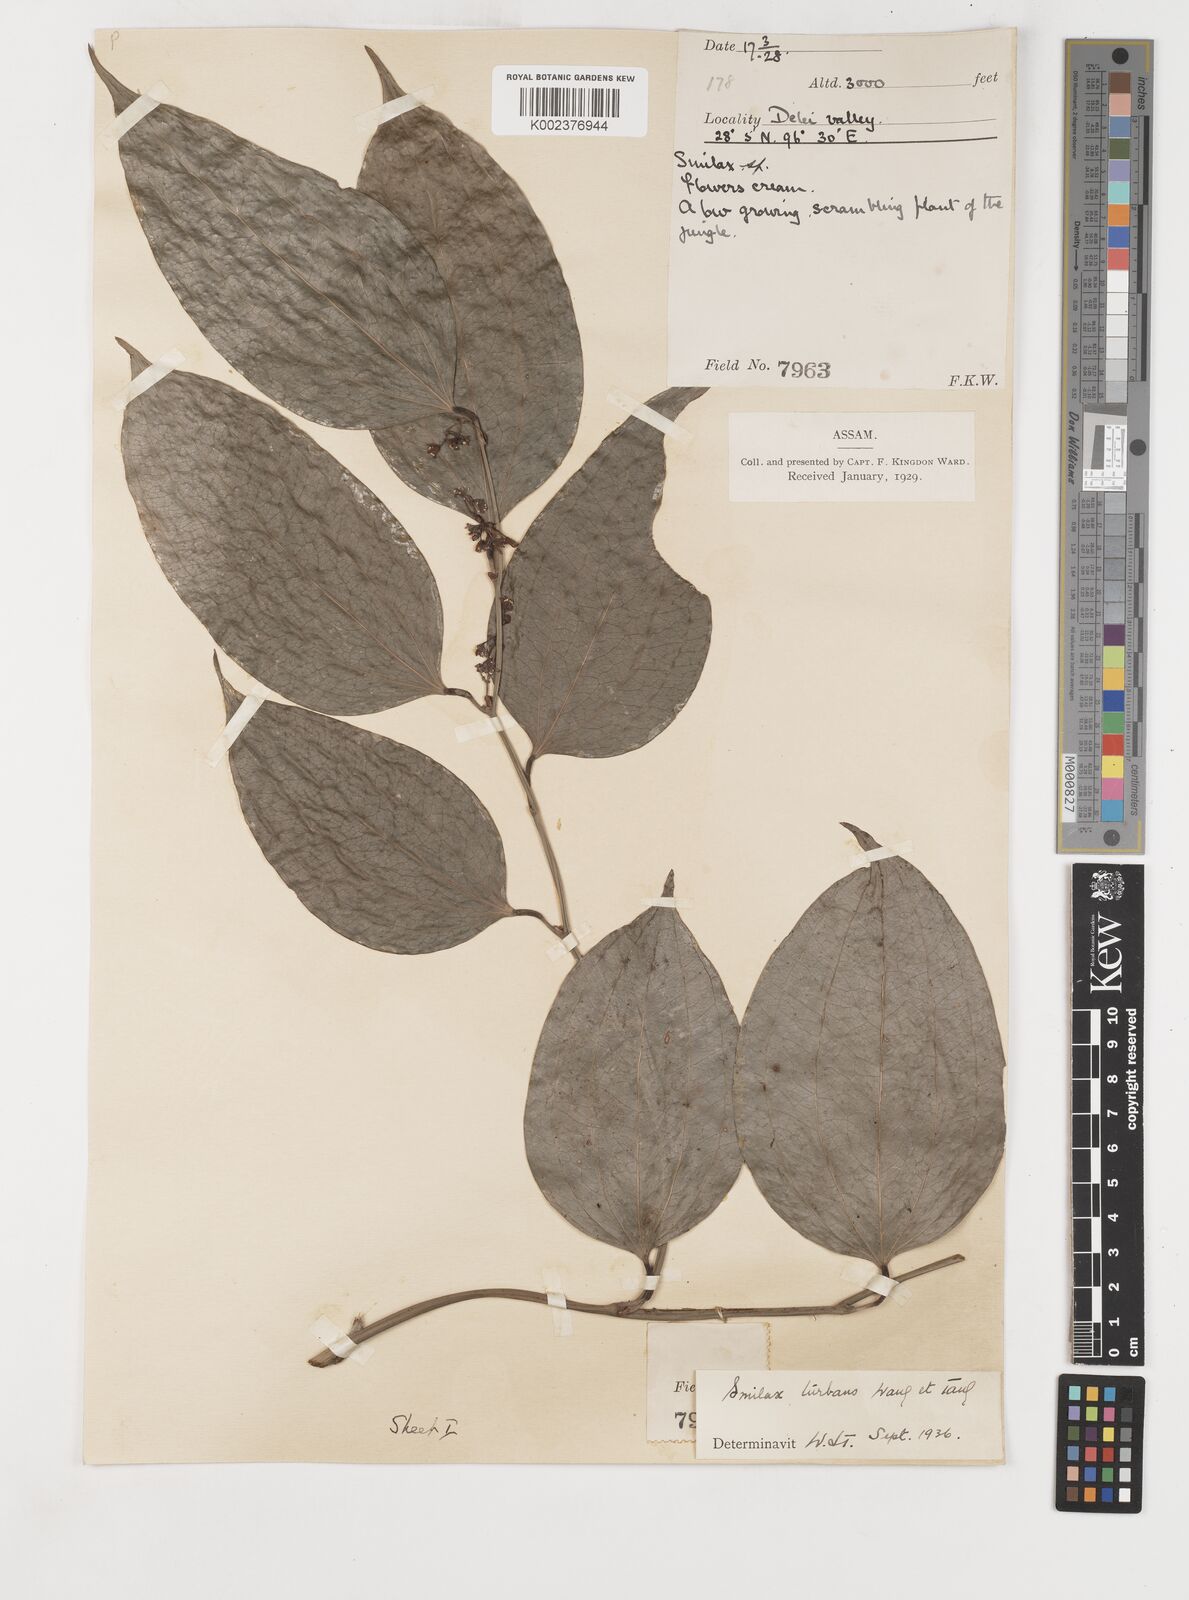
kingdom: Plantae
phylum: Tracheophyta
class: Liliopsida
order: Liliales
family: Smilacaceae
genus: Smilax
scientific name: Smilax turbans
